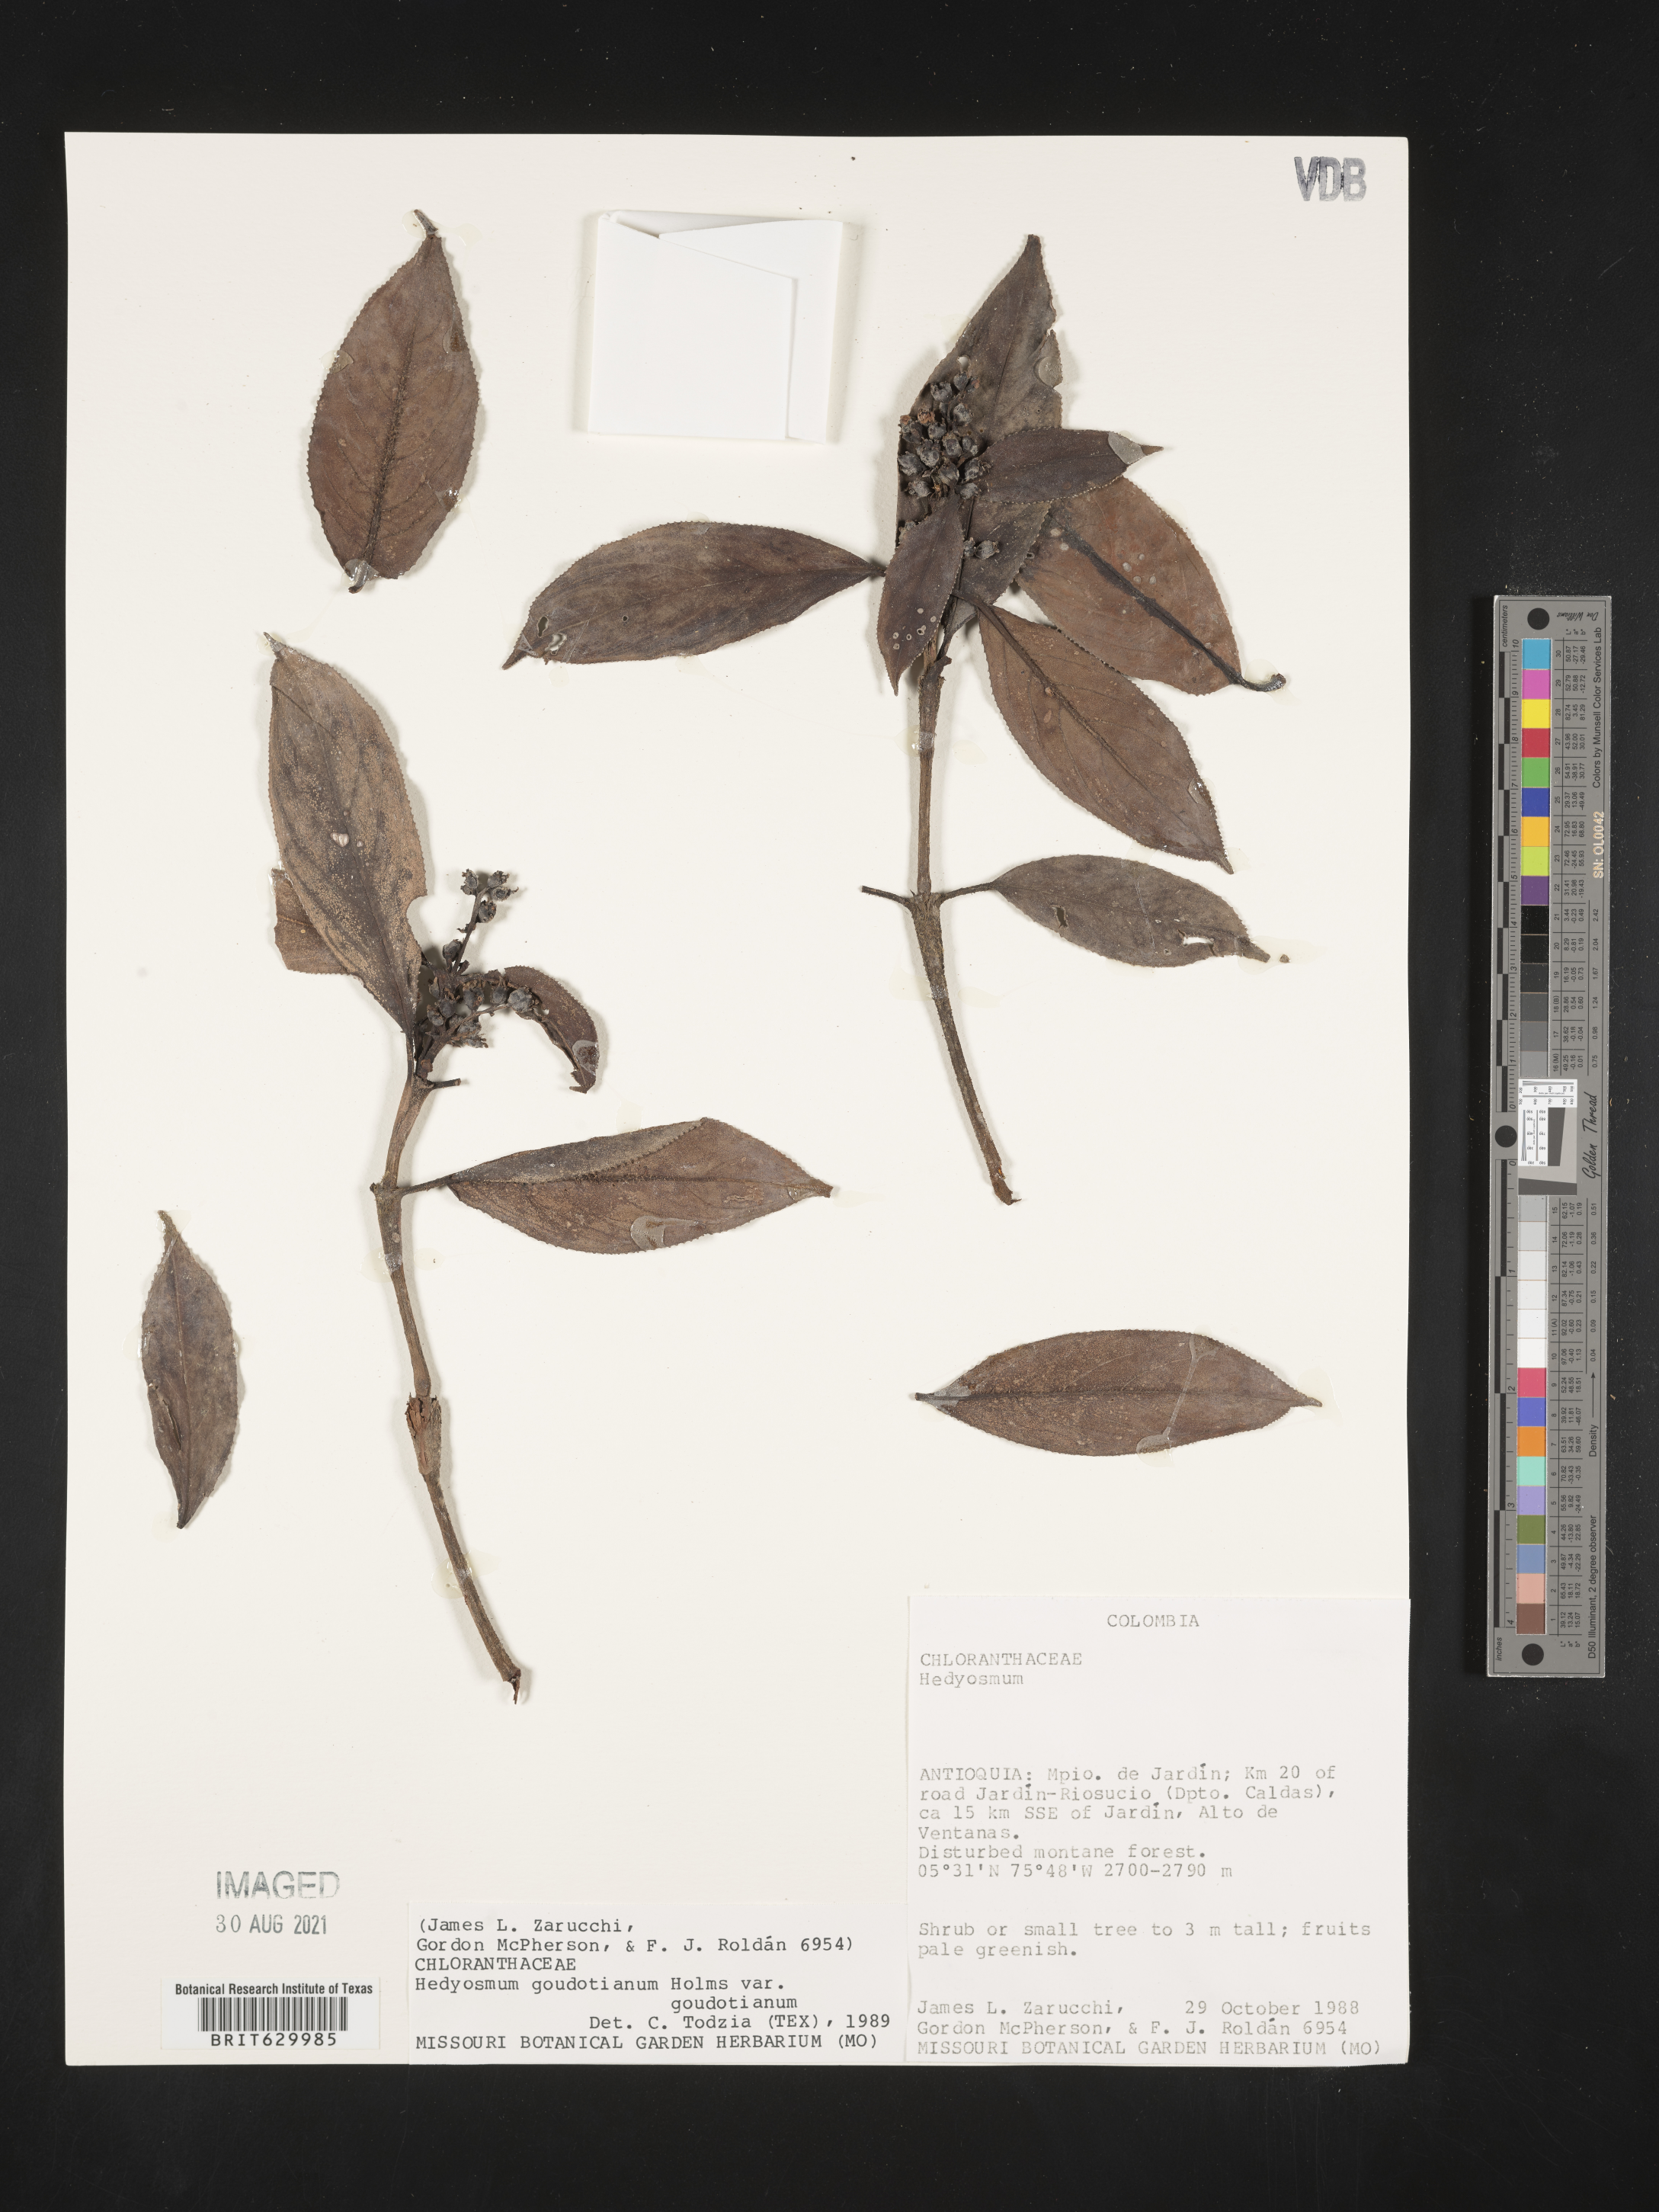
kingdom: Plantae
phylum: Tracheophyta
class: Magnoliopsida
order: Chloranthales
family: Chloranthaceae
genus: Hedyosmum
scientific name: Hedyosmum goudotianum
